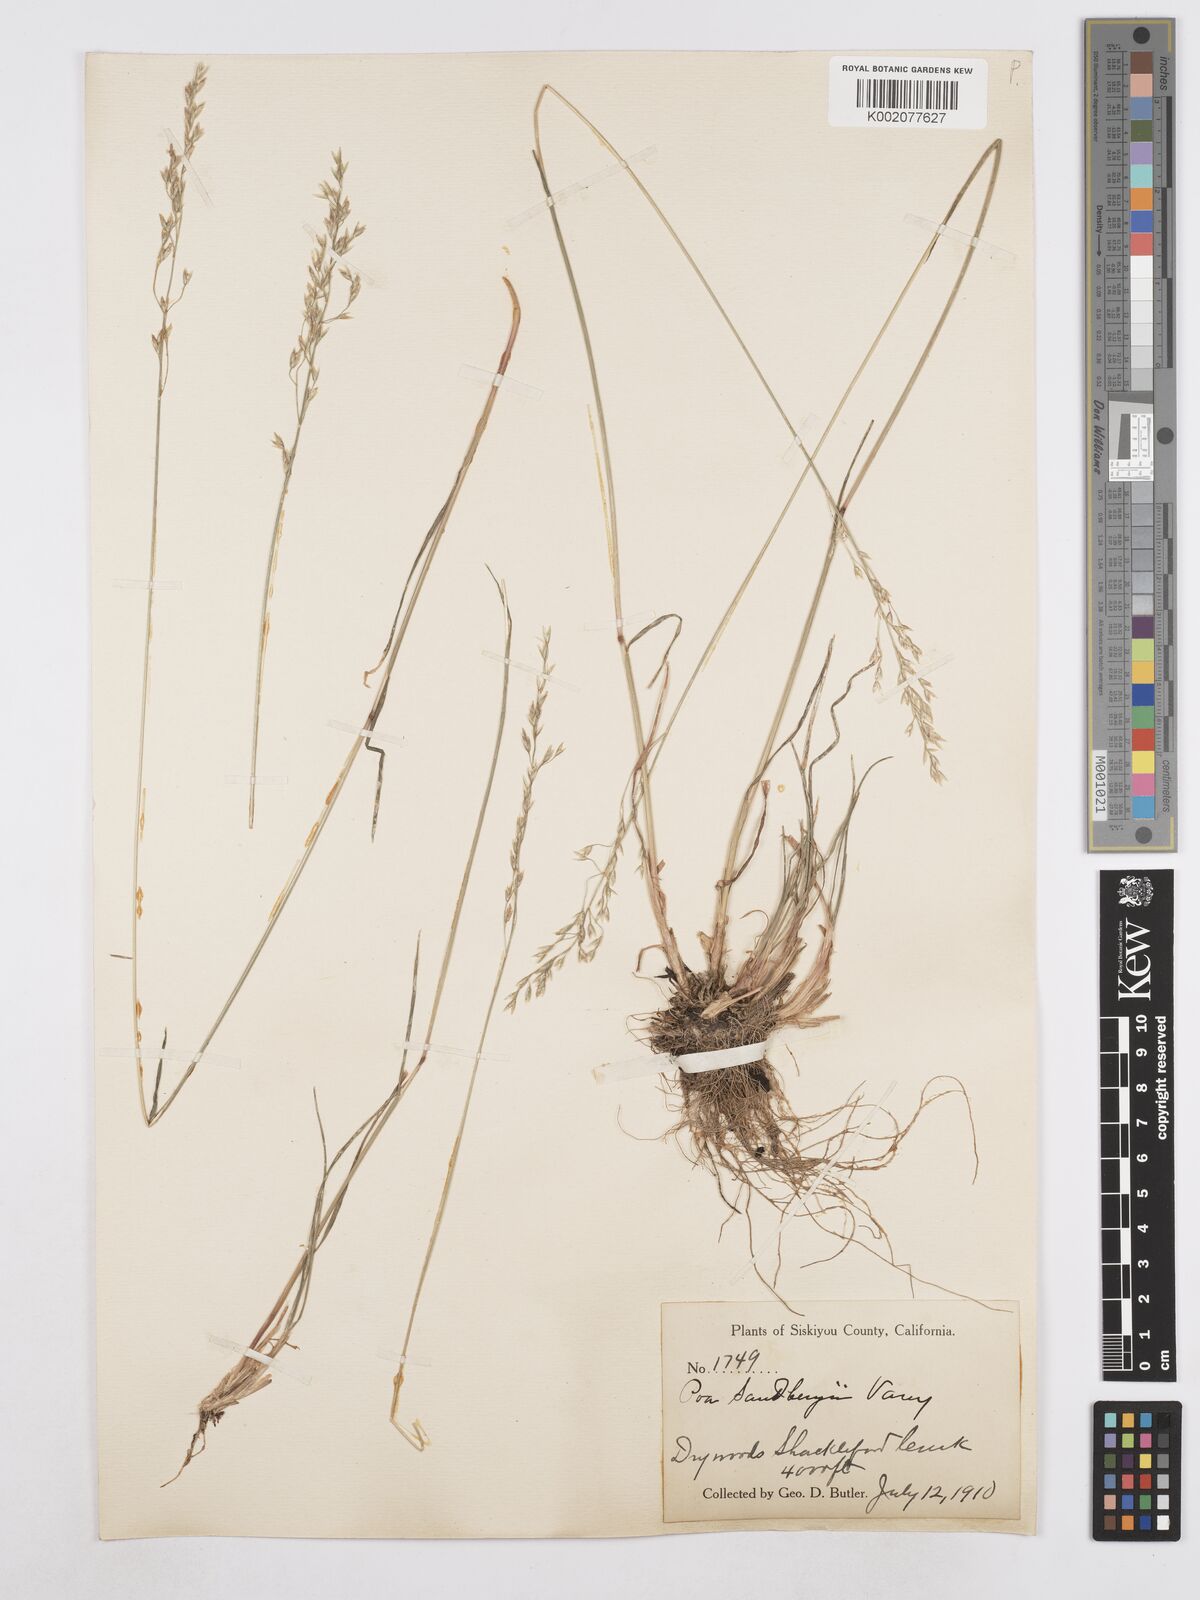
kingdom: Plantae
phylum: Tracheophyta
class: Liliopsida
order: Poales
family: Poaceae
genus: Poa
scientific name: Poa secunda
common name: Sandberg bluegrass
